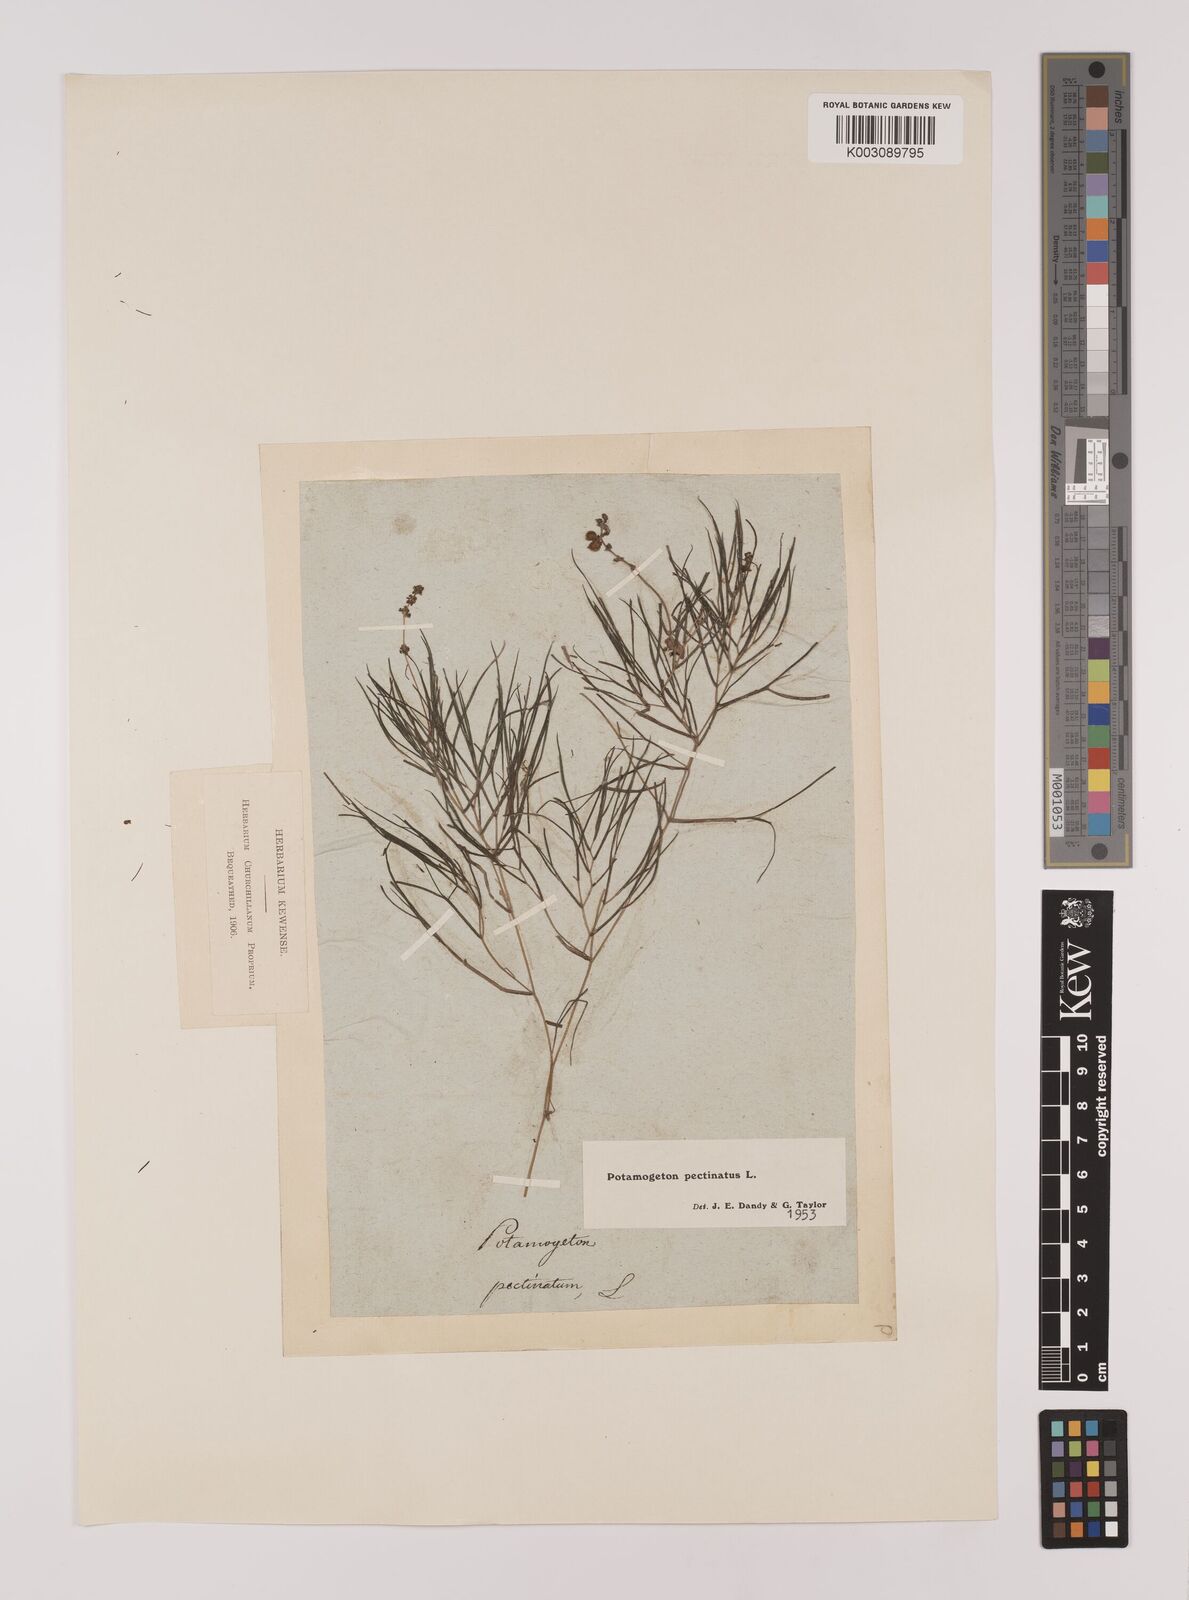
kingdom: Plantae
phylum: Tracheophyta
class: Liliopsida
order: Alismatales
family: Potamogetonaceae
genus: Stuckenia
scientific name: Stuckenia pectinata
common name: Sago pondweed
